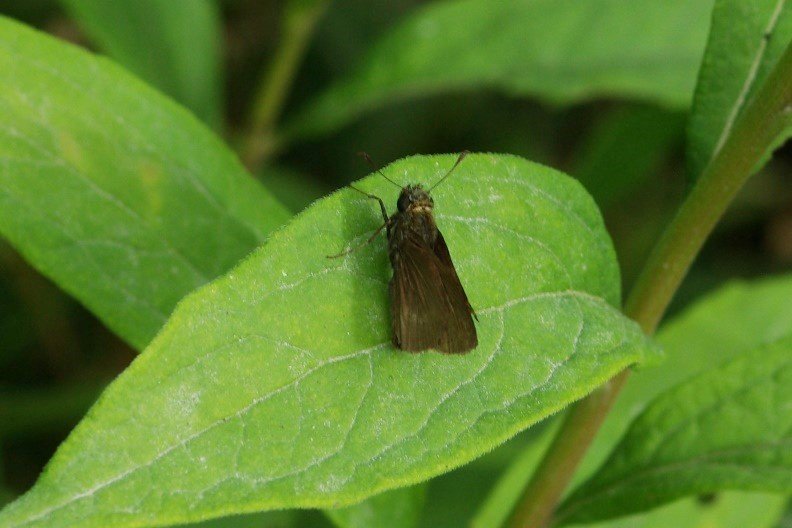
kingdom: Animalia
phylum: Arthropoda
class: Insecta
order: Lepidoptera
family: Hesperiidae
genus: Polites
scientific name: Polites egeremet
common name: Northern Broken-Dash
